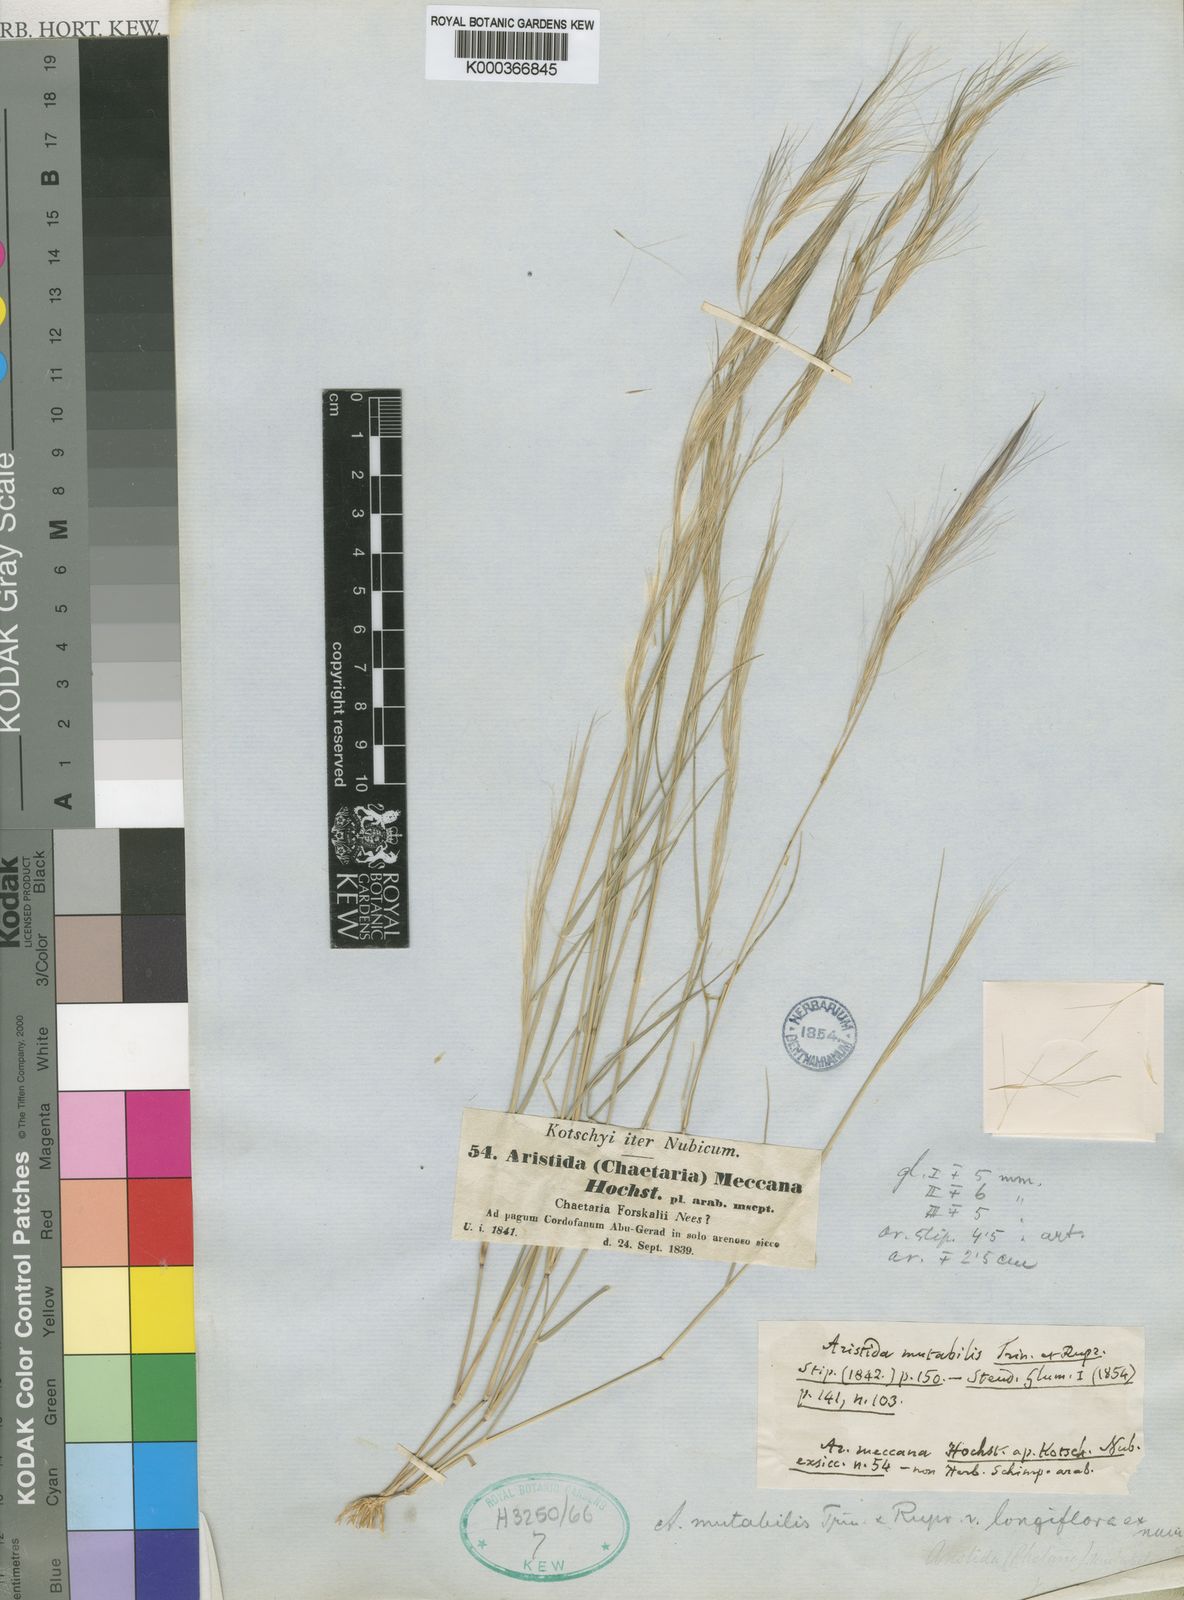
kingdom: Plantae
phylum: Tracheophyta
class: Liliopsida
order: Poales
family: Poaceae
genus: Aristida
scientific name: Aristida mutabilis
